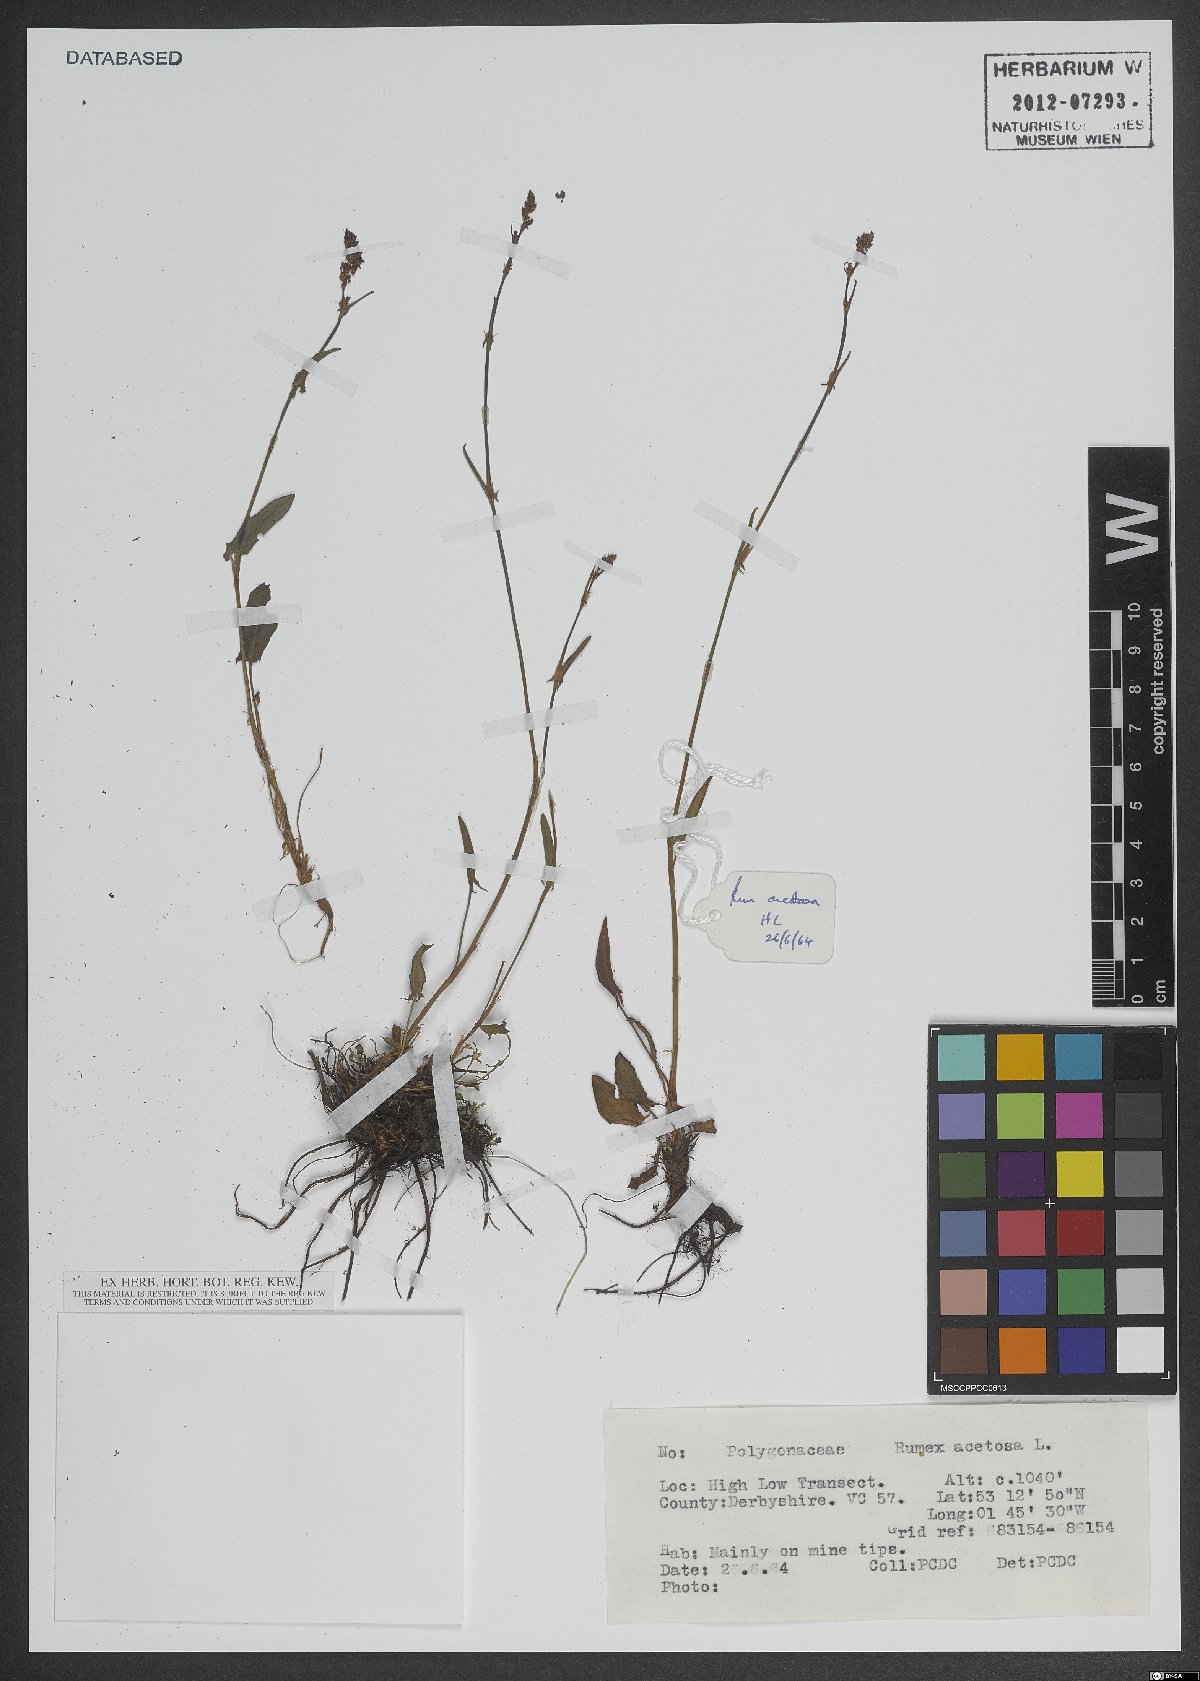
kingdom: Plantae
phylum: Tracheophyta
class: Magnoliopsida
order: Caryophyllales
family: Polygonaceae
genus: Rumex
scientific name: Rumex acetosa
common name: Garden sorrel
